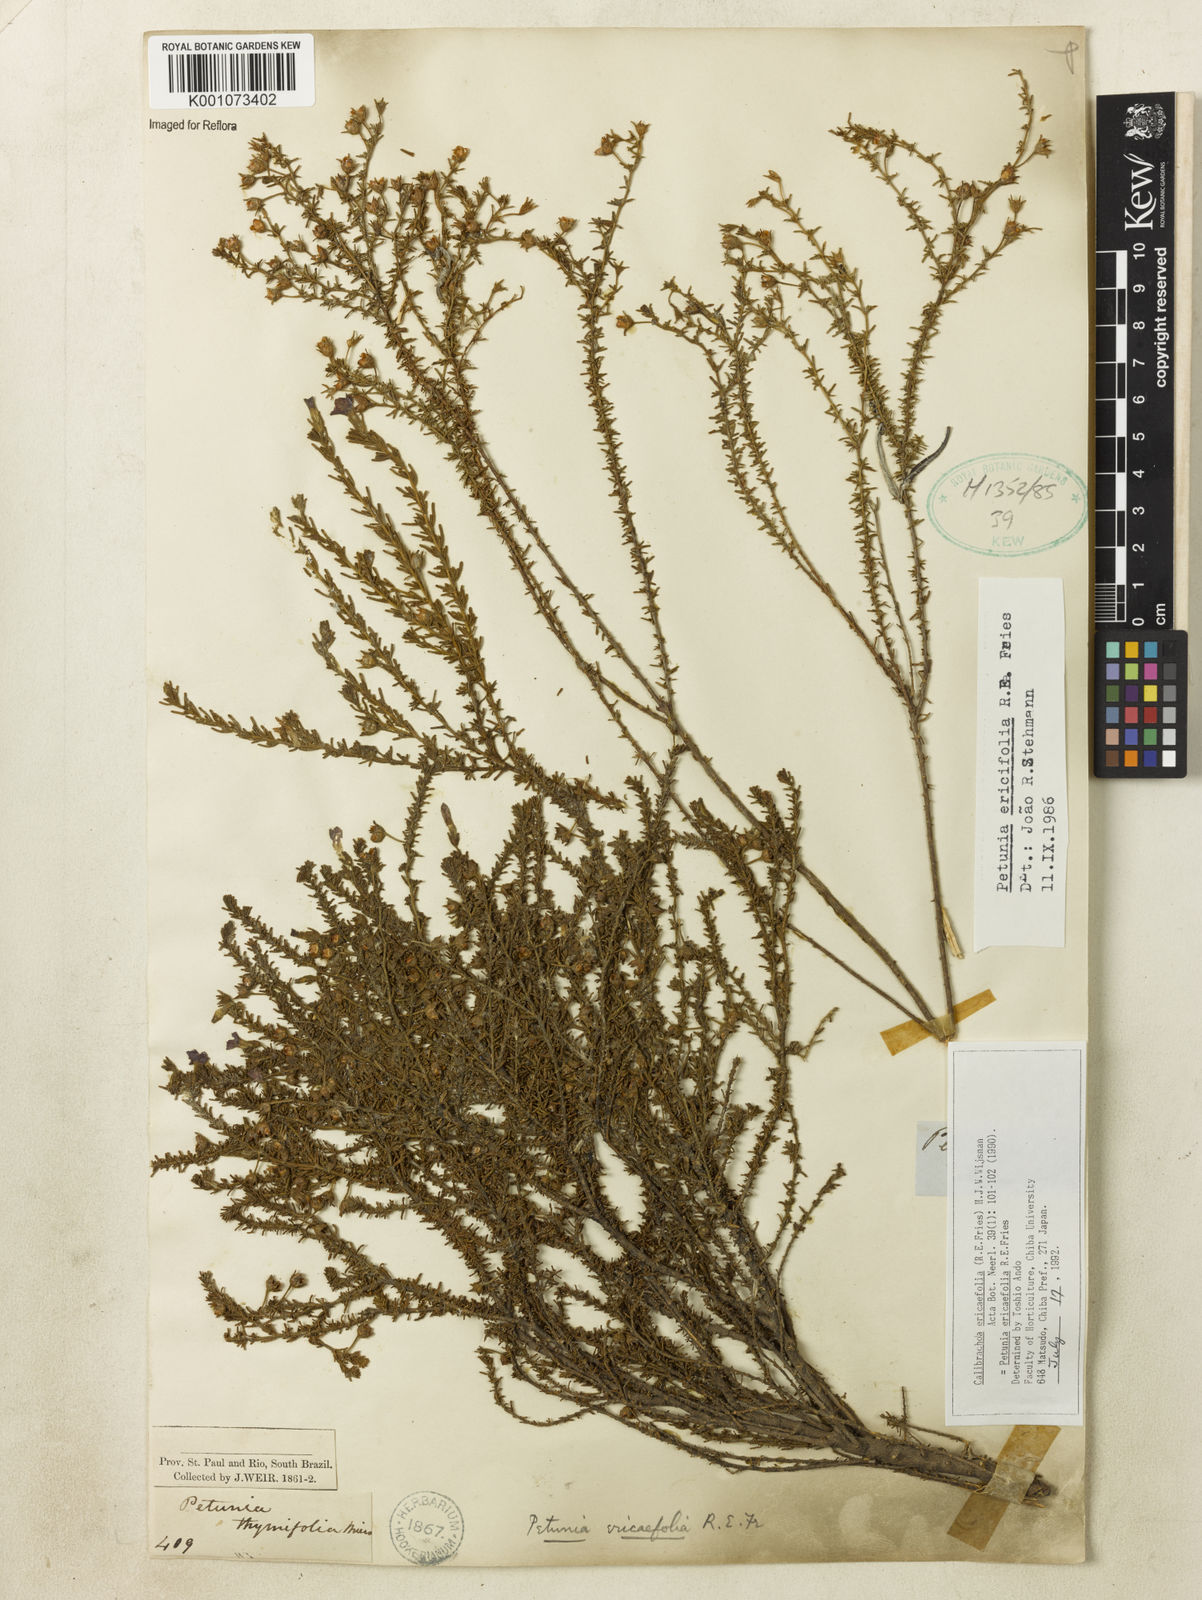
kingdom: Plantae
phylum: Tracheophyta
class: Magnoliopsida
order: Solanales
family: Solanaceae
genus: Calibrachoa
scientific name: Calibrachoa ericifolia
